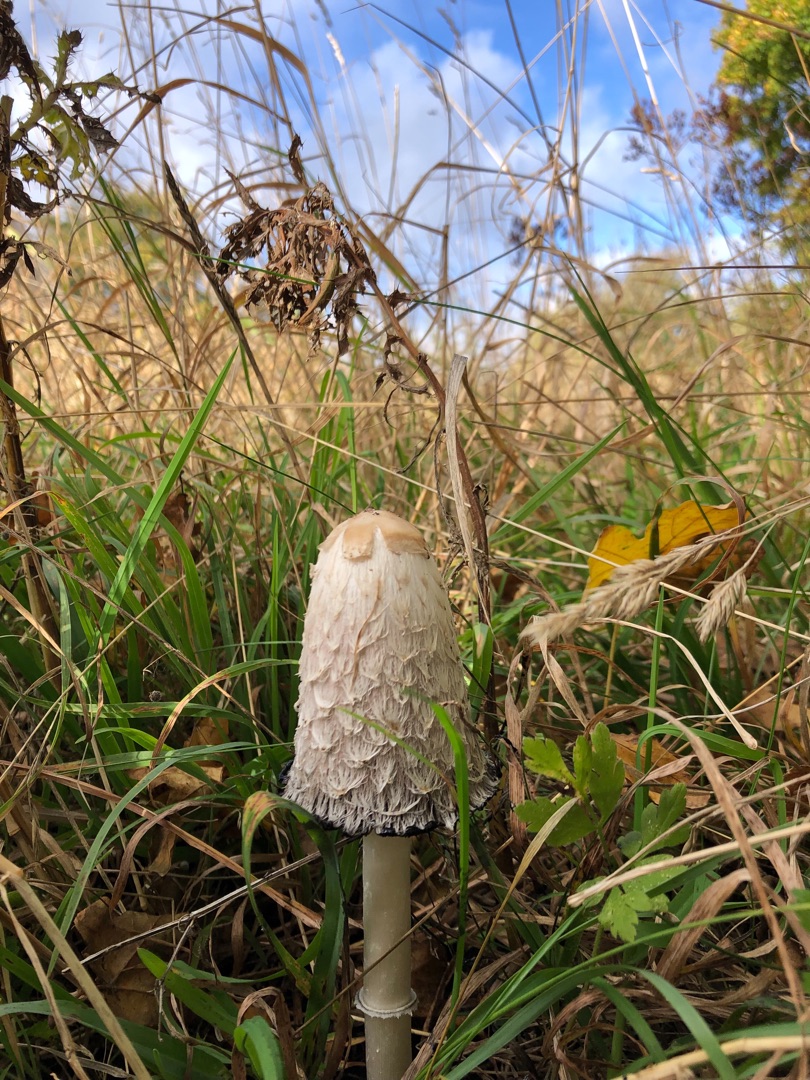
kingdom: Fungi
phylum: Basidiomycota
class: Agaricomycetes
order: Agaricales
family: Agaricaceae
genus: Coprinus
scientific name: Coprinus comatus
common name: Stor parykhat
